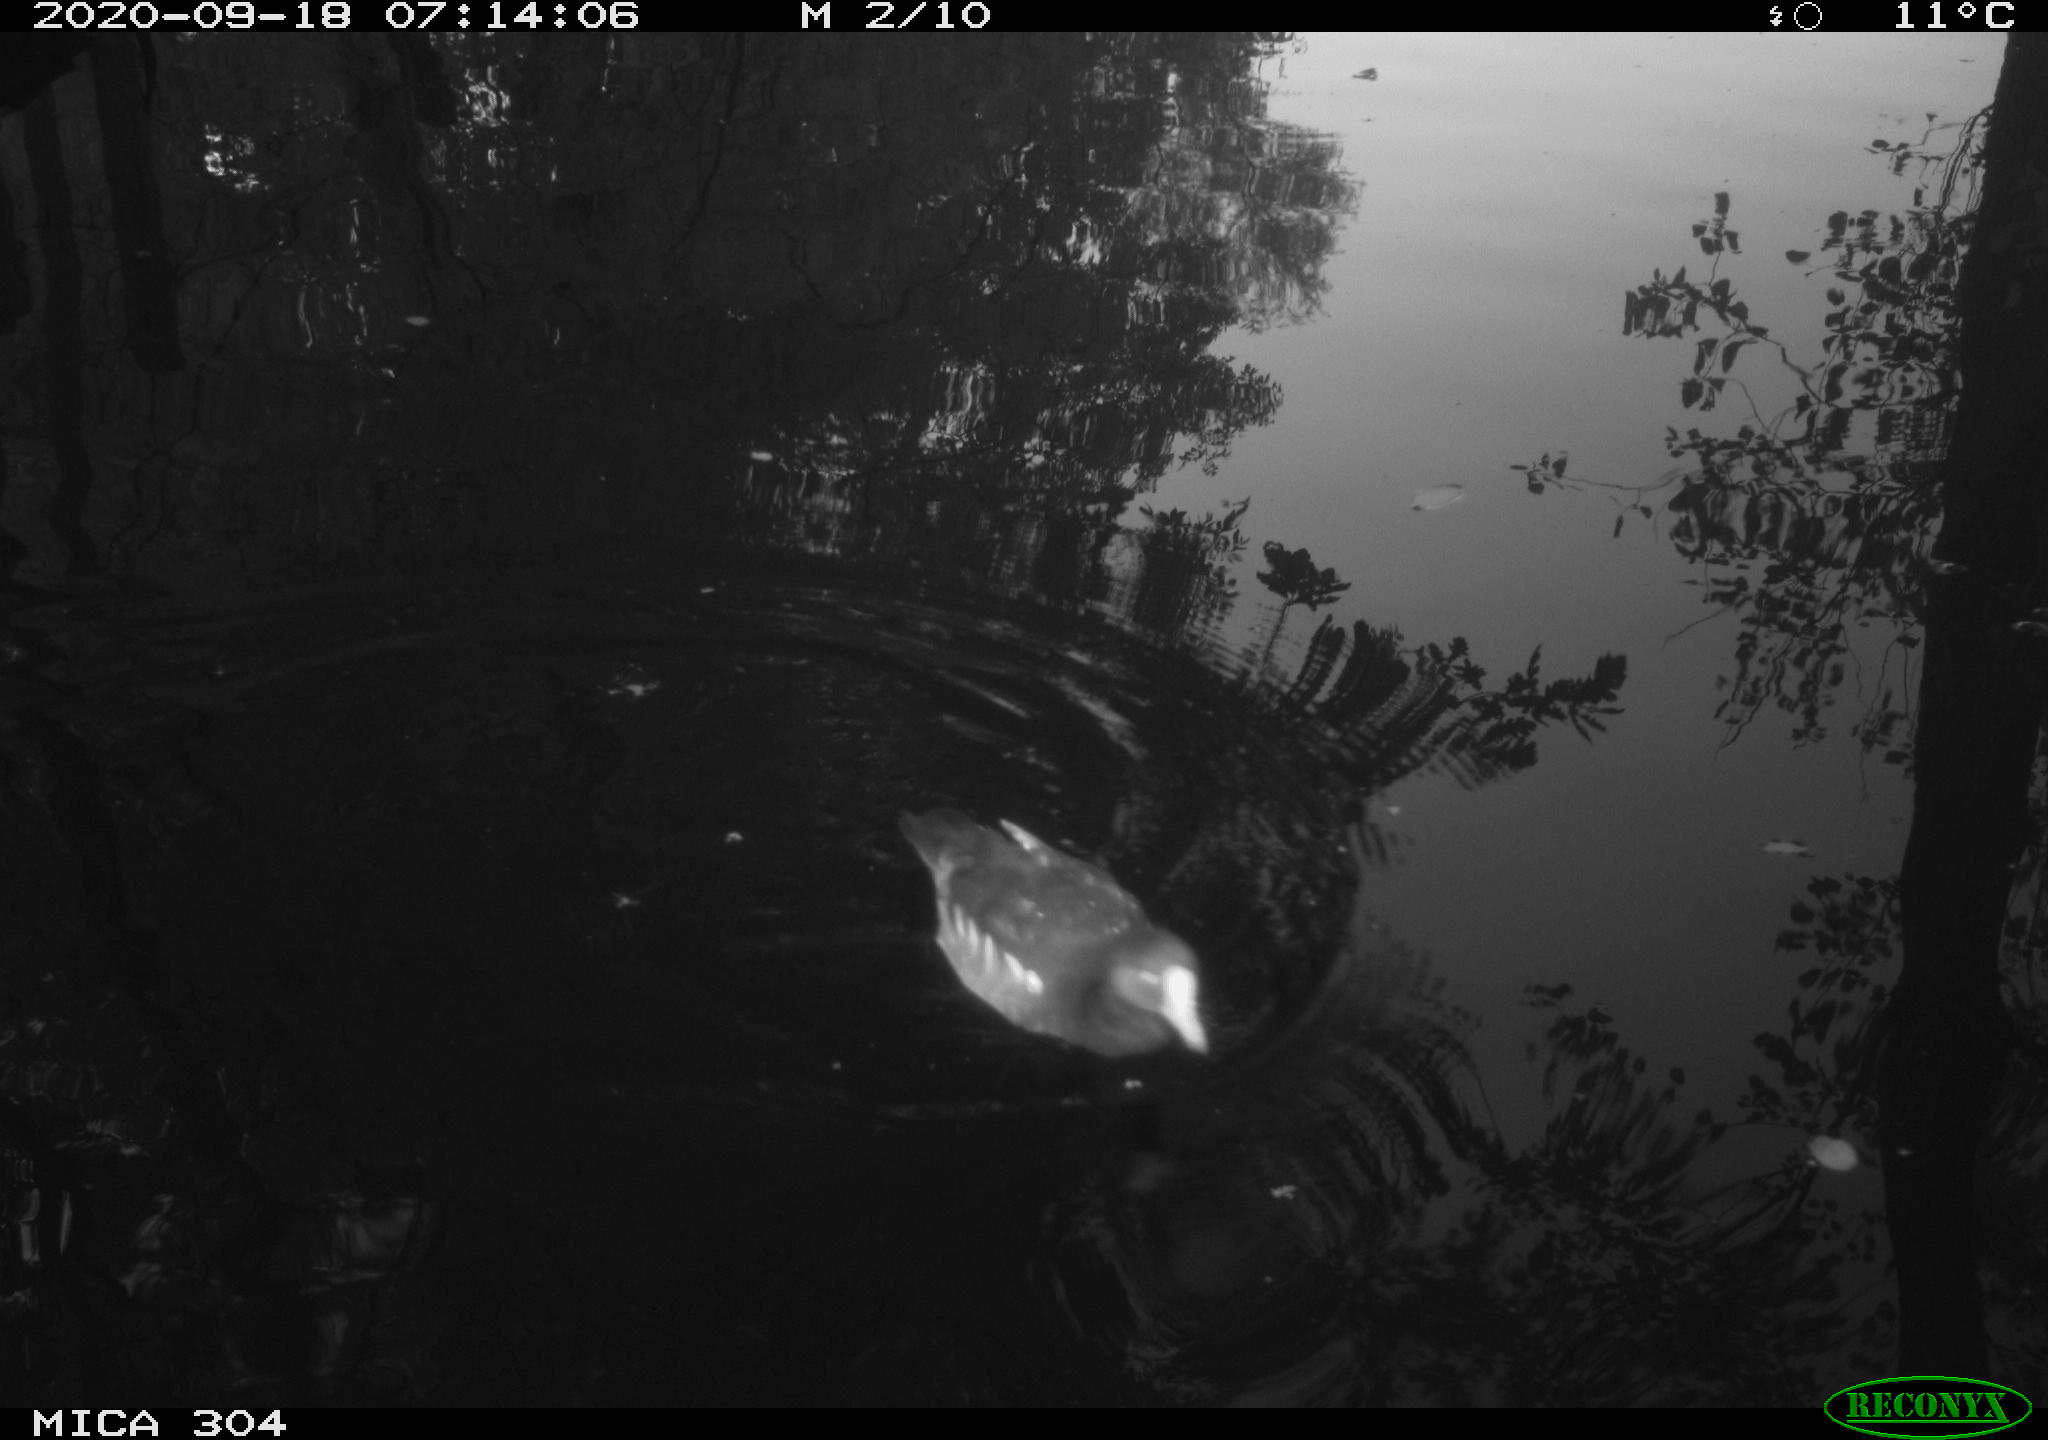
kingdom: Animalia
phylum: Chordata
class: Aves
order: Gruiformes
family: Rallidae
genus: Gallinula
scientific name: Gallinula chloropus
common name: Common moorhen
